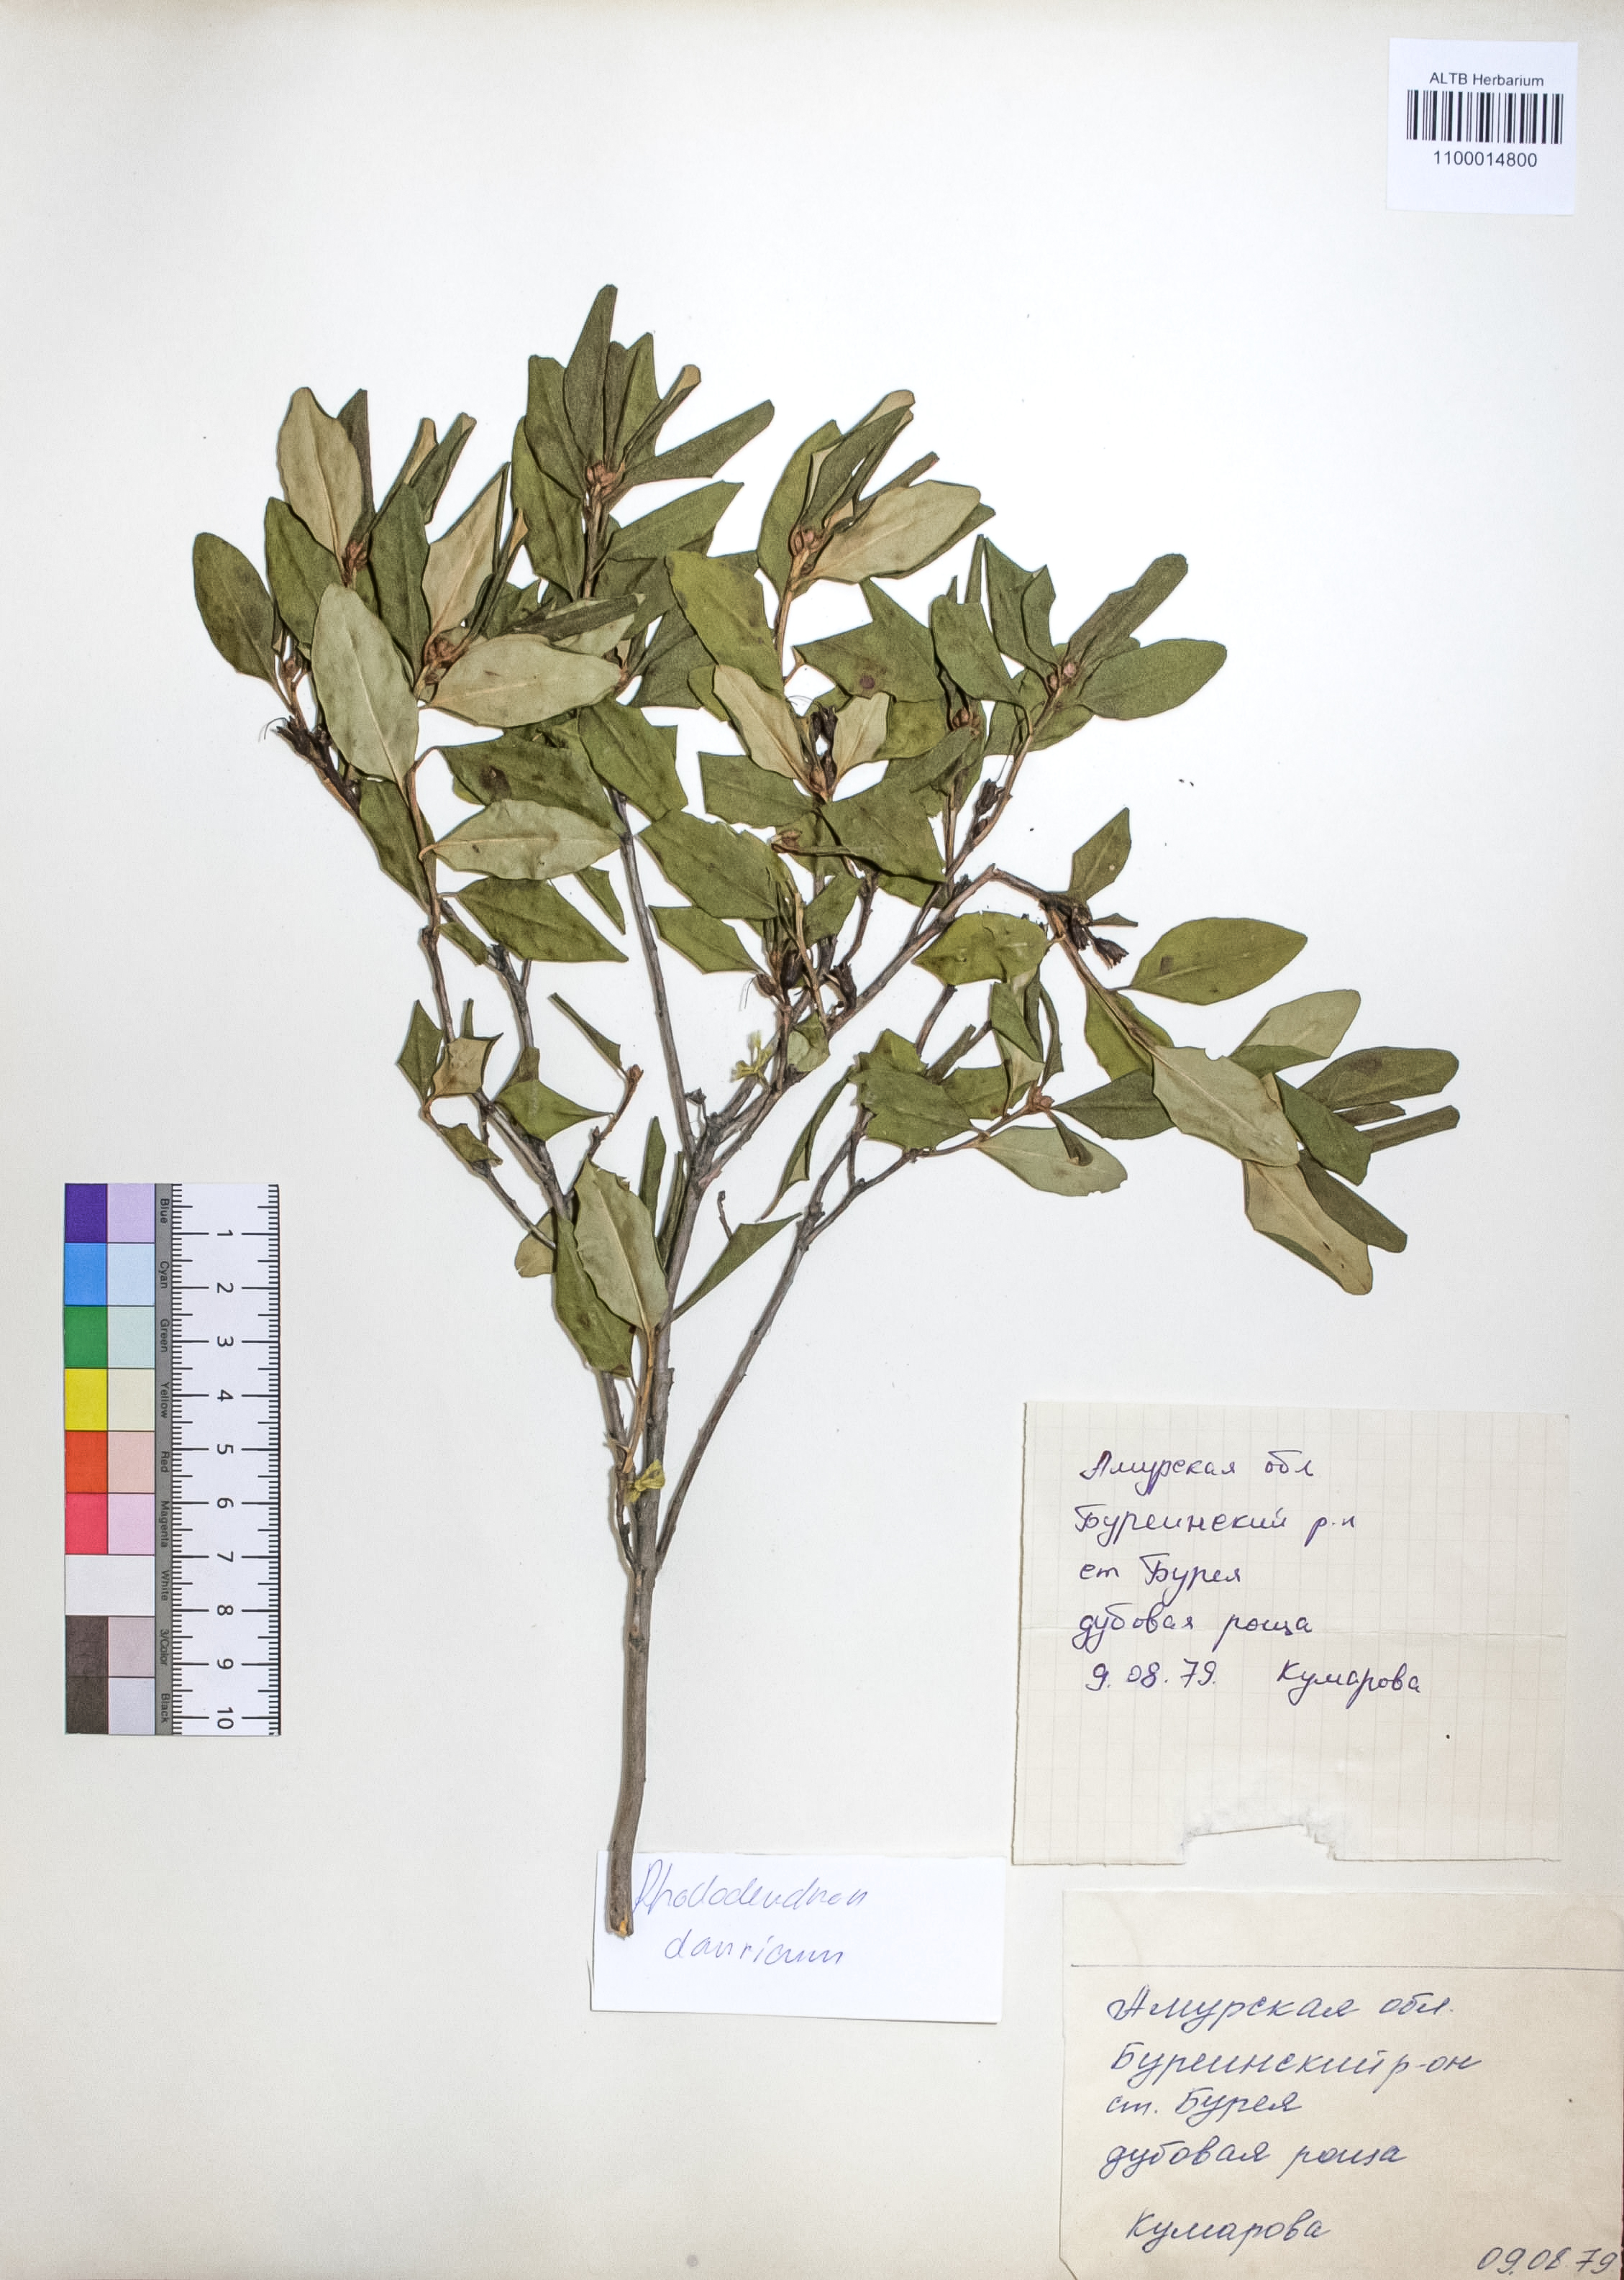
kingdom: Plantae
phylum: Tracheophyta
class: Magnoliopsida
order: Ericales
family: Ericaceae
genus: Rhododendron
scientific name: Rhododendron dahuricum
